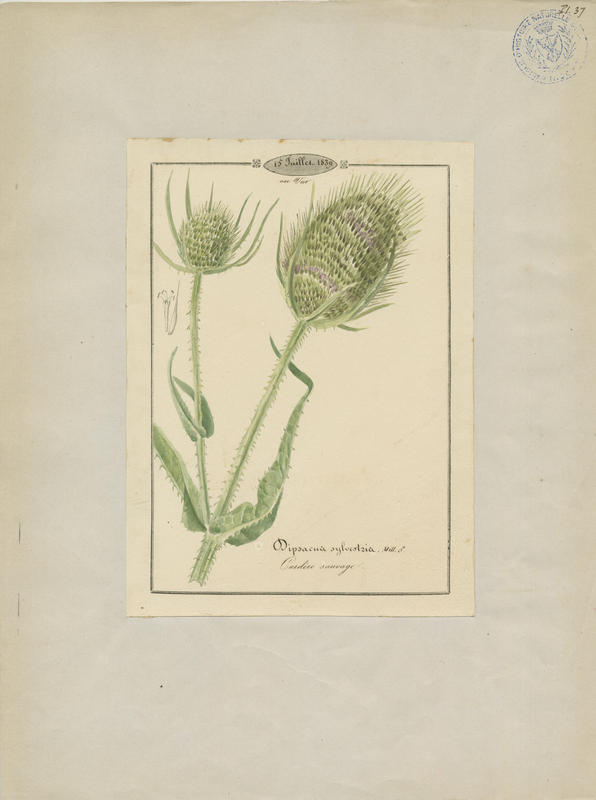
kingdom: Plantae
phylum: Tracheophyta
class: Magnoliopsida
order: Dipsacales
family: Caprifoliaceae
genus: Dipsacus
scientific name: Dipsacus fullonum
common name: Teasel
